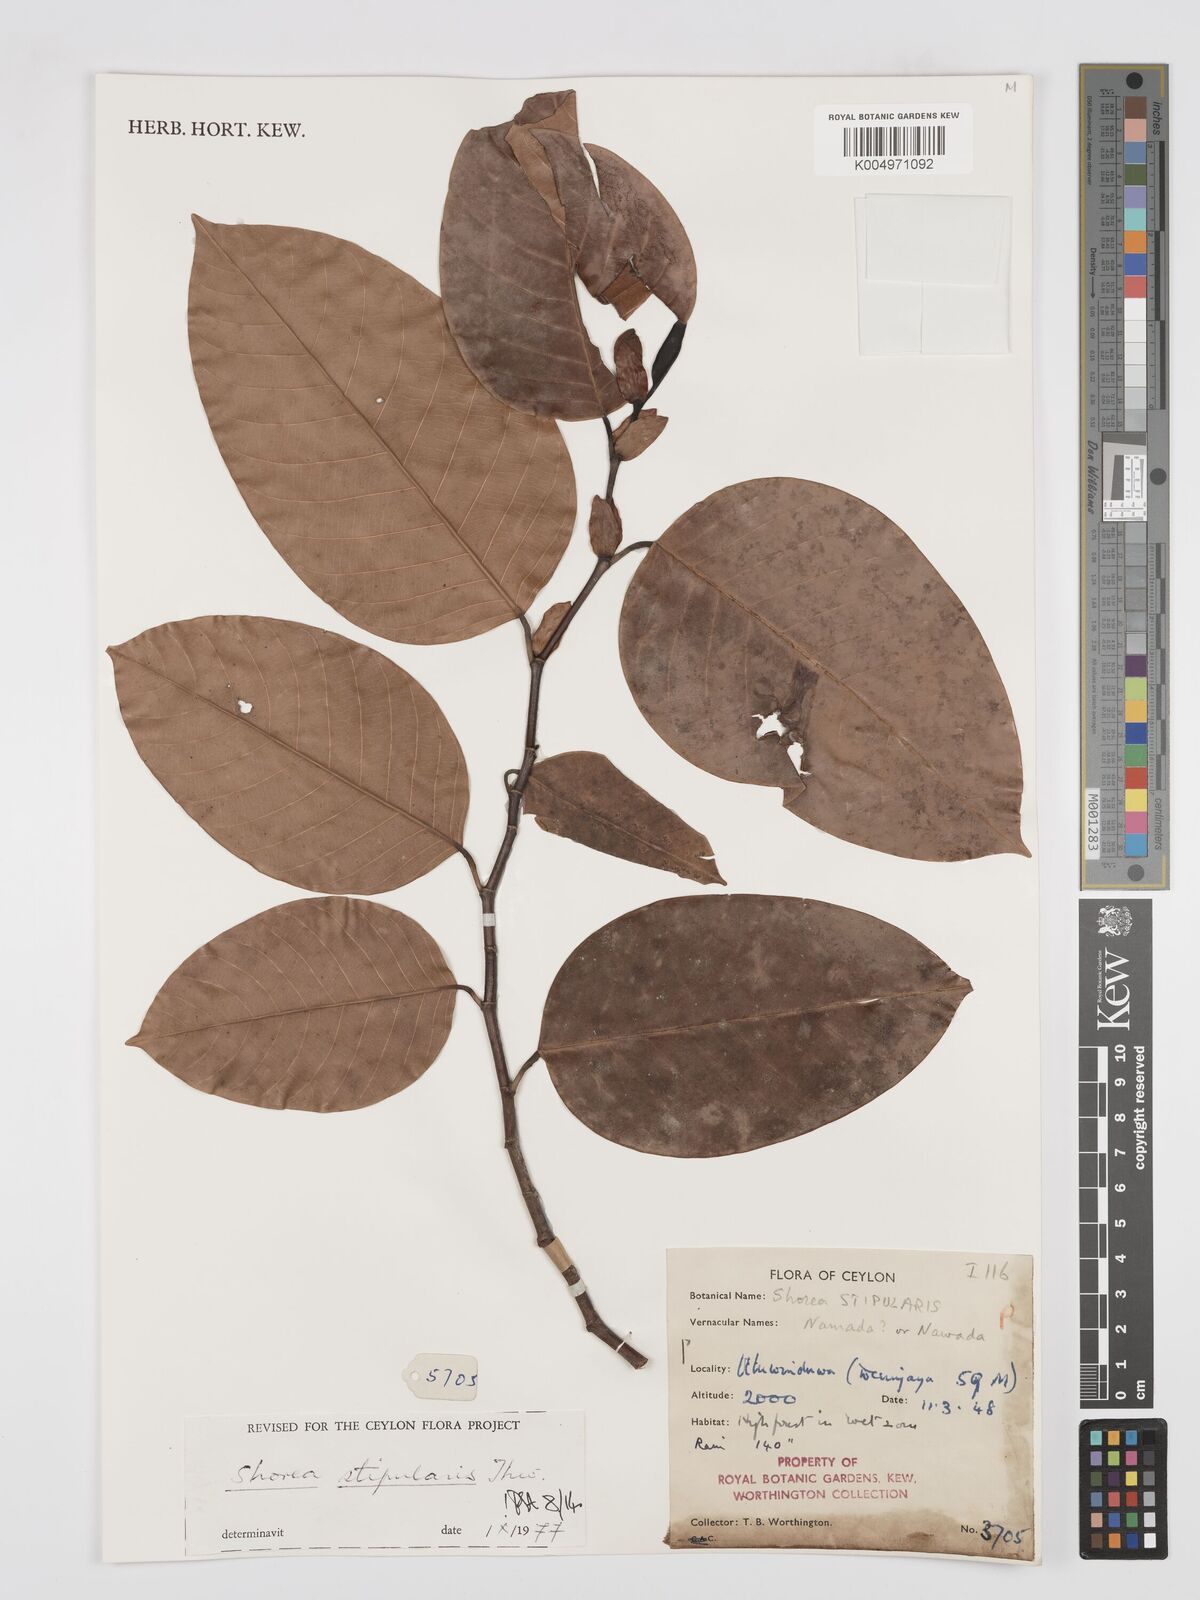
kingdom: Plantae
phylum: Tracheophyta
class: Magnoliopsida
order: Malvales
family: Dipterocarpaceae
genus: Anthoshorea
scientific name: Anthoshorea stipularis
